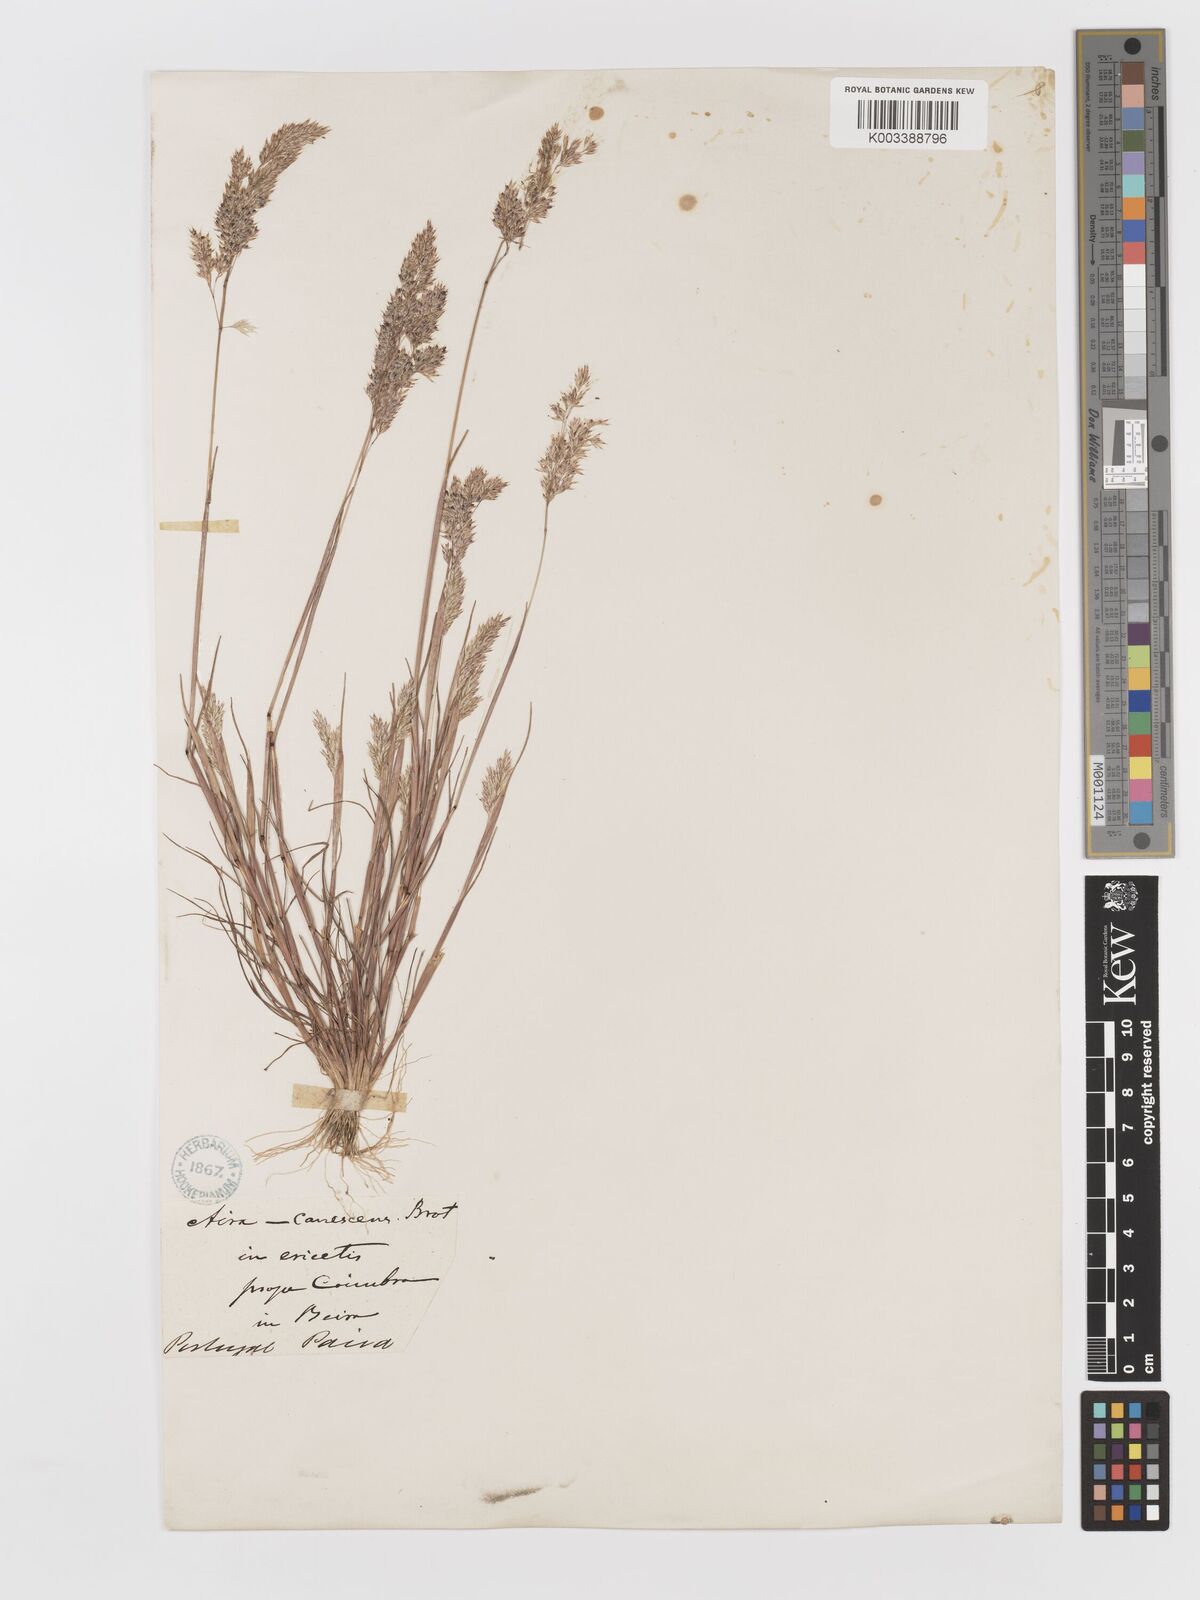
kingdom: Plantae
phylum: Tracheophyta
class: Liliopsida
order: Poales
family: Poaceae
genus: Corynephorus
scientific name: Corynephorus canescens
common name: Grey hair-grass
